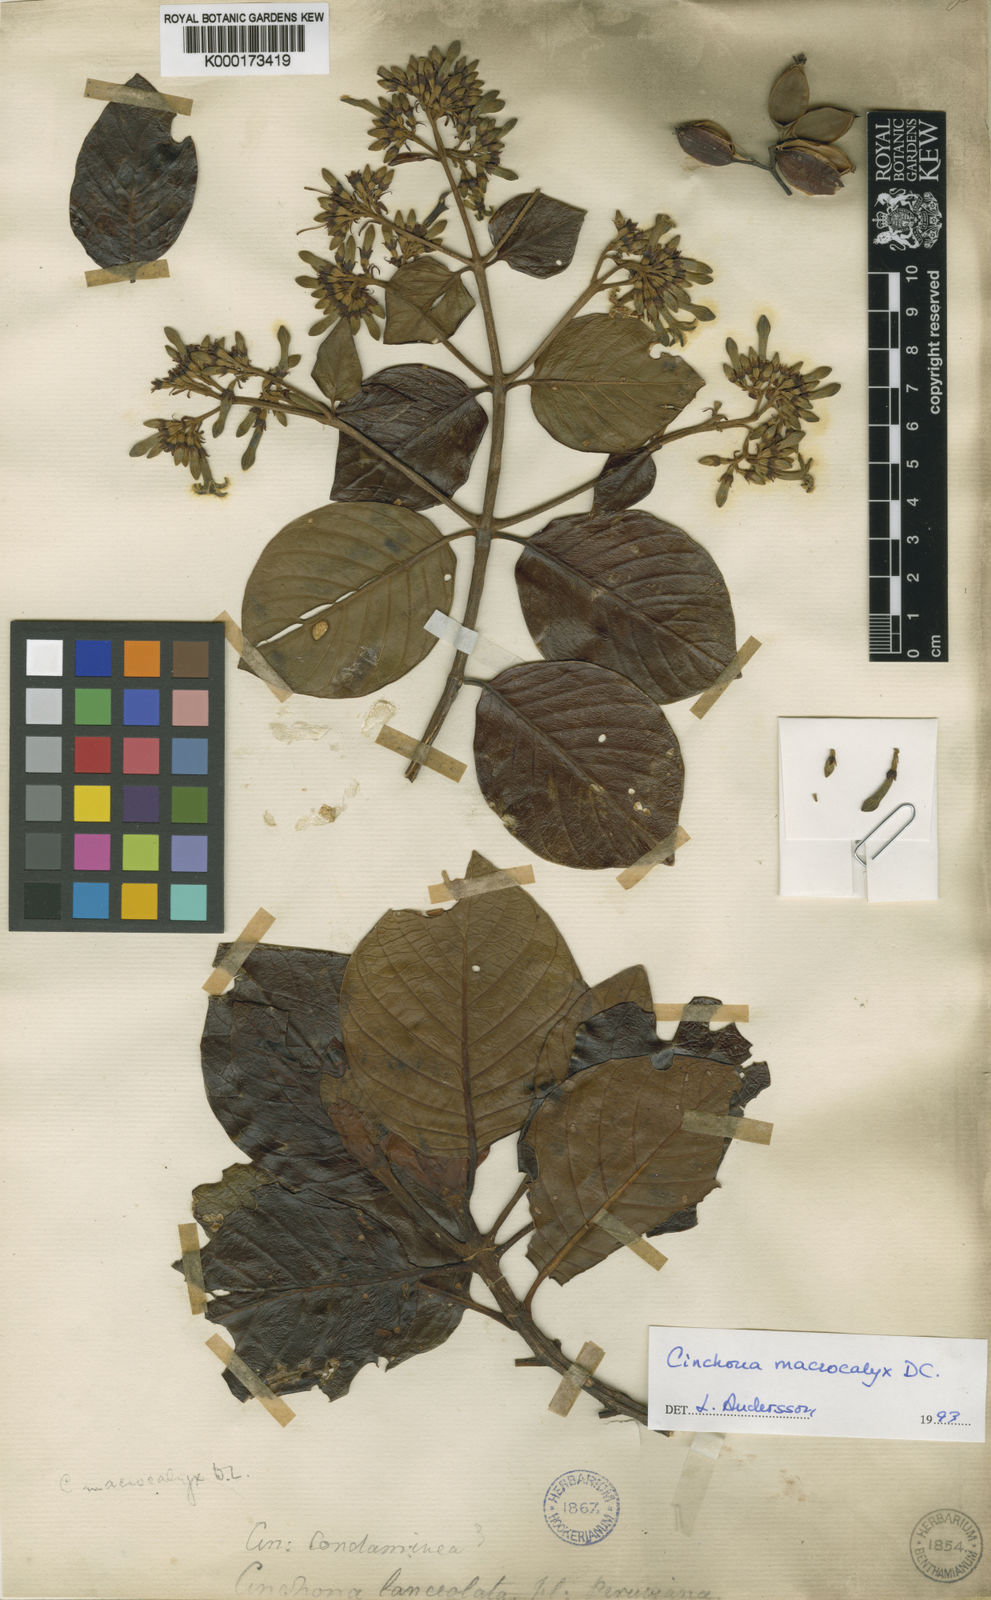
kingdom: Plantae
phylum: Tracheophyta
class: Magnoliopsida
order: Gentianales
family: Rubiaceae
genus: Cinchona
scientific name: Cinchona macrocalyx
